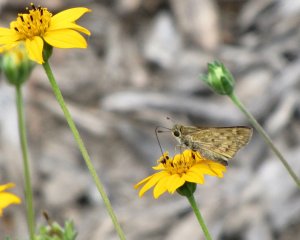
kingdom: Animalia
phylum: Arthropoda
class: Insecta
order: Lepidoptera
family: Hesperiidae
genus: Hylephila
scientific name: Hylephila phyleus
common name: Fiery Skipper
